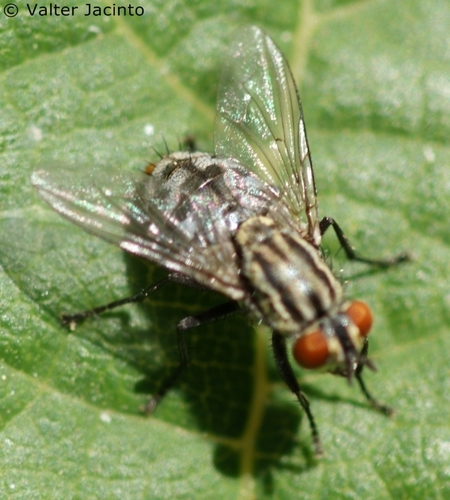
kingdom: Animalia
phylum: Arthropoda
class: Insecta
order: Diptera
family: Sarcophagidae
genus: Sarcophaga
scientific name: Sarcophaga maculata
